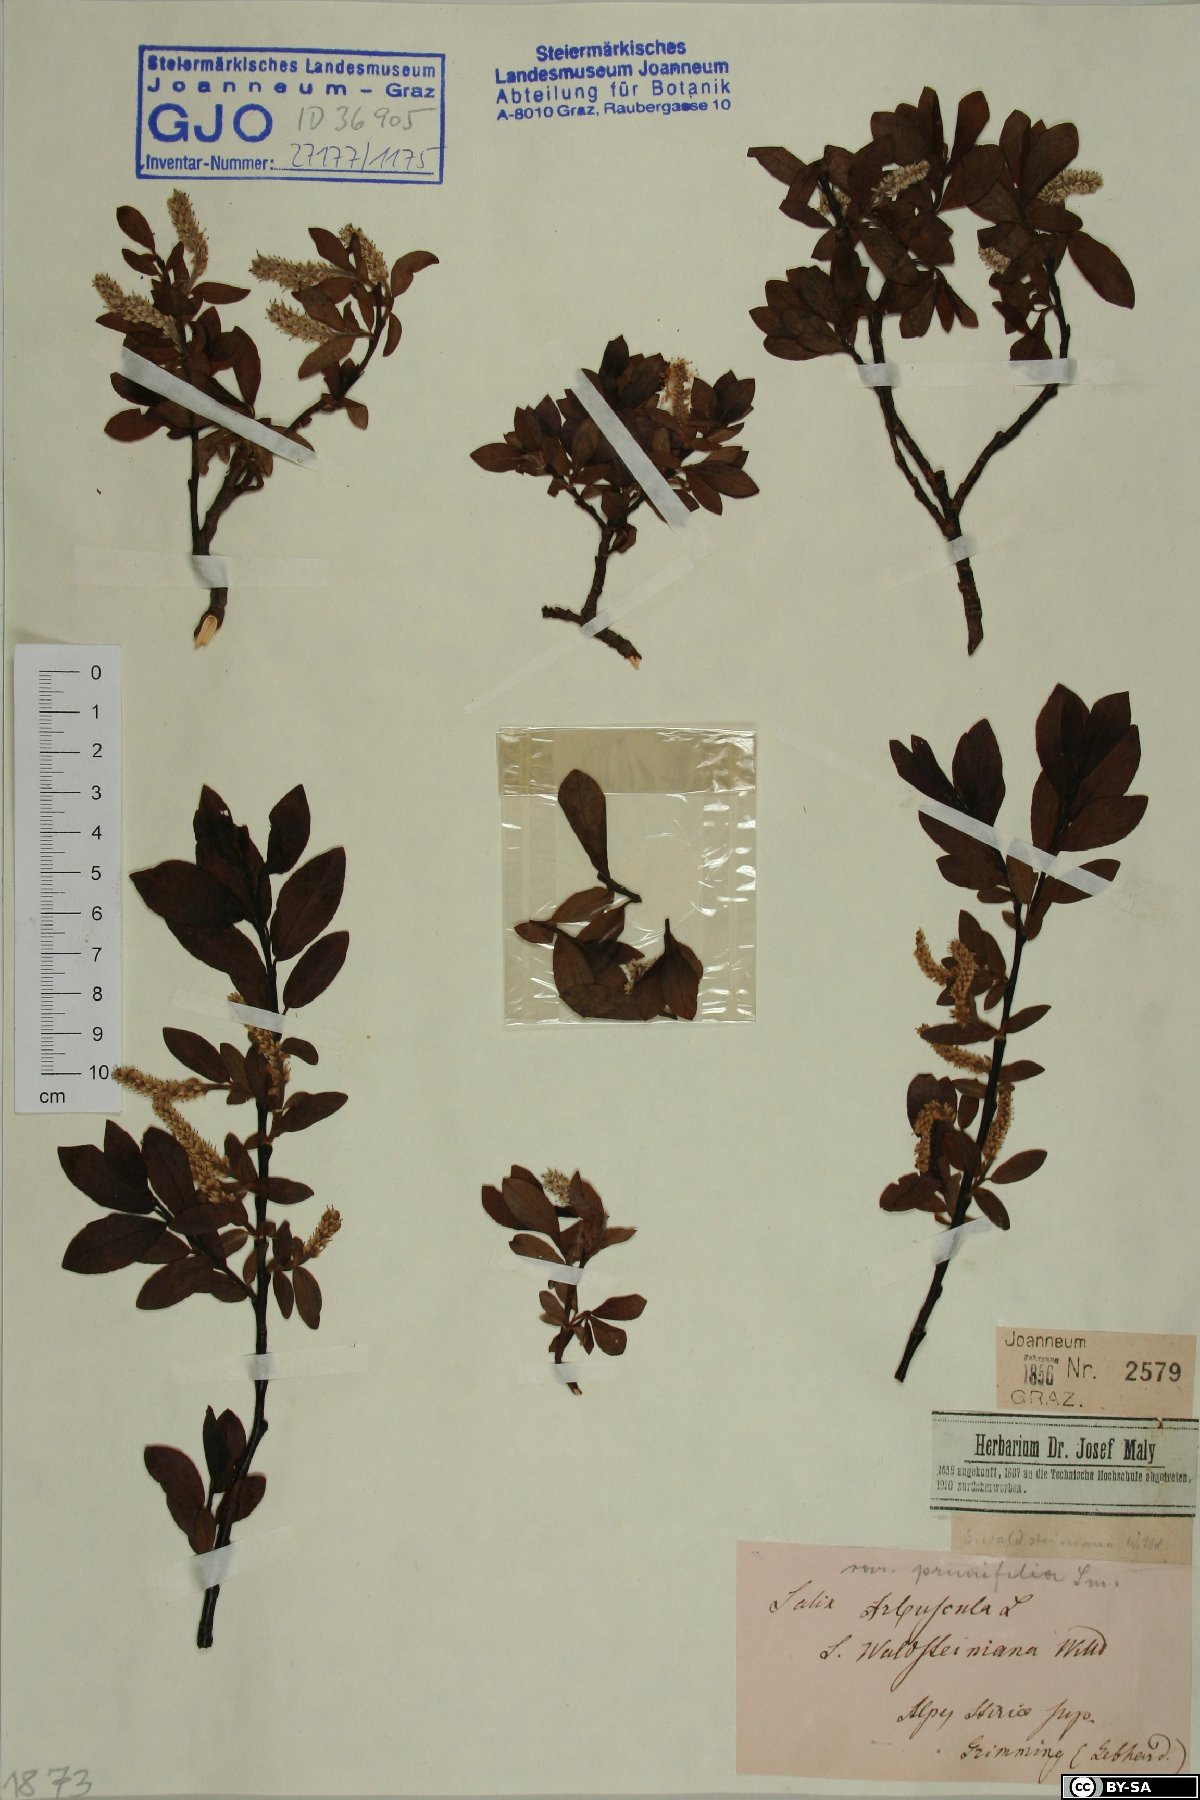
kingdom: Plantae
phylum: Tracheophyta
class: Magnoliopsida
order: Malpighiales
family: Salicaceae
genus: Salix
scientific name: Salix waldsteiniana
